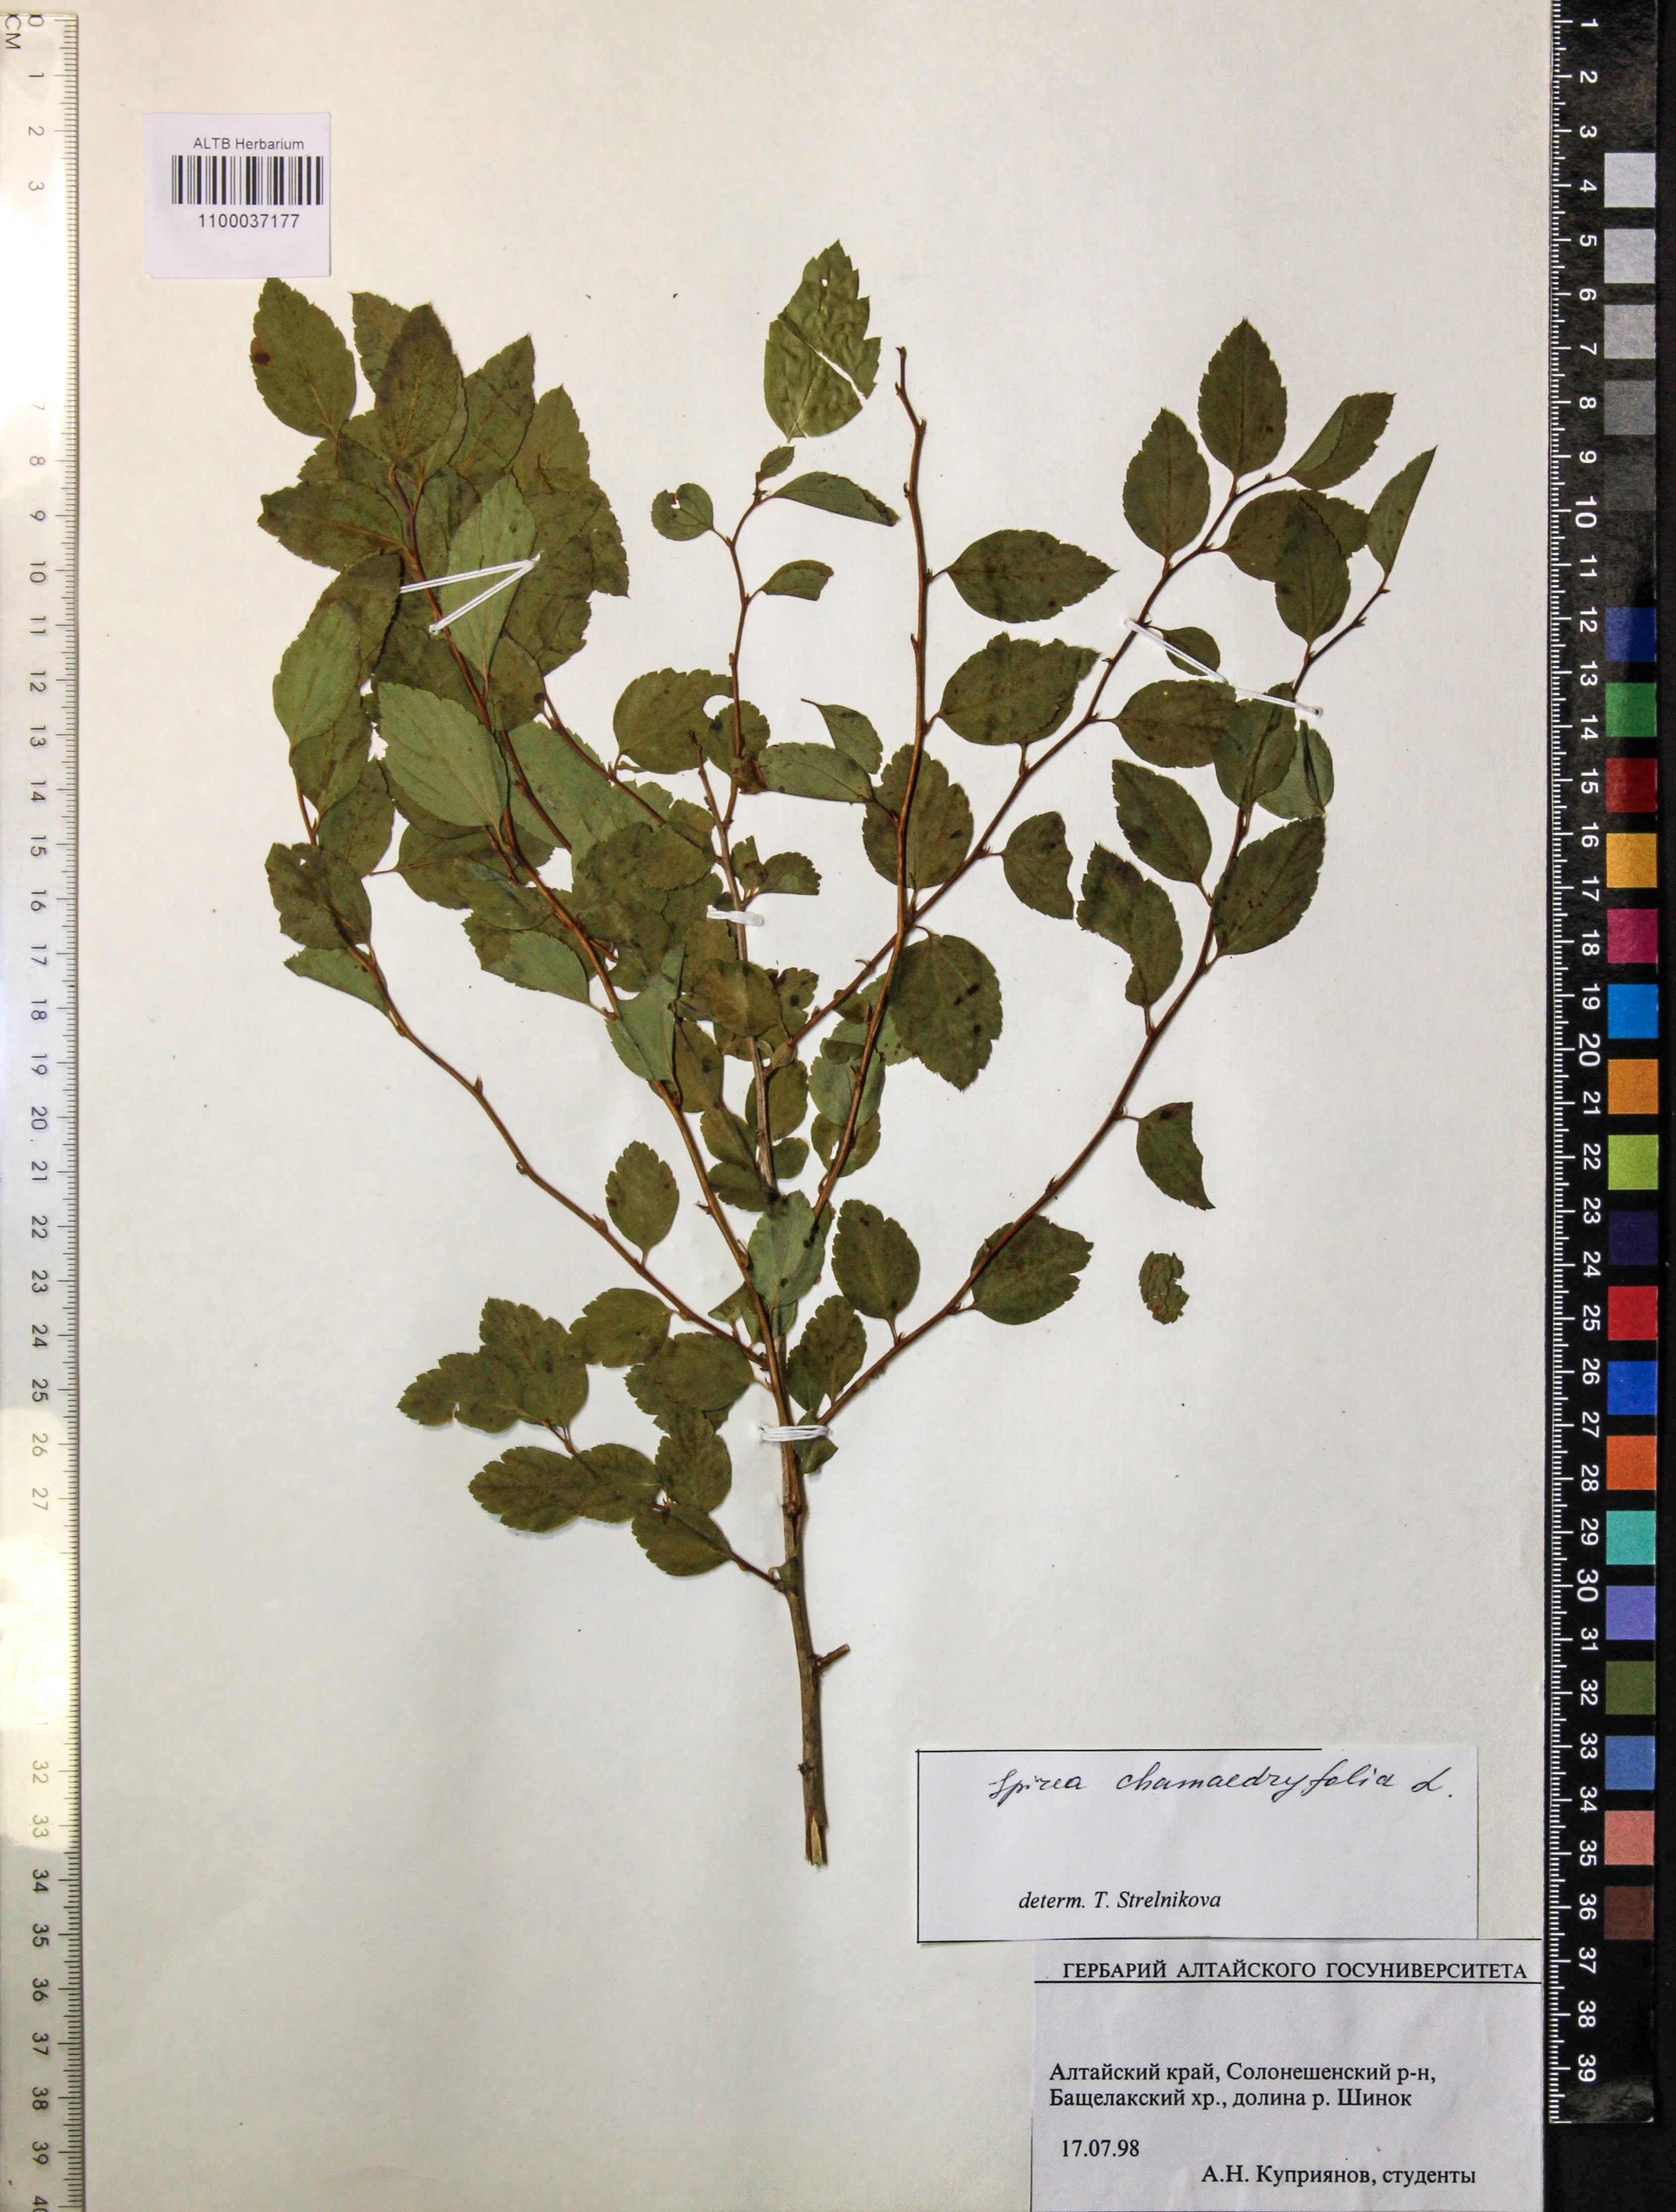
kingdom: Plantae
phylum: Tracheophyta
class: Magnoliopsida
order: Rosales
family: Rosaceae
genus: Spiraea
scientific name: Spiraea chamaedryfolia
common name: Elm-leaved spiraea
